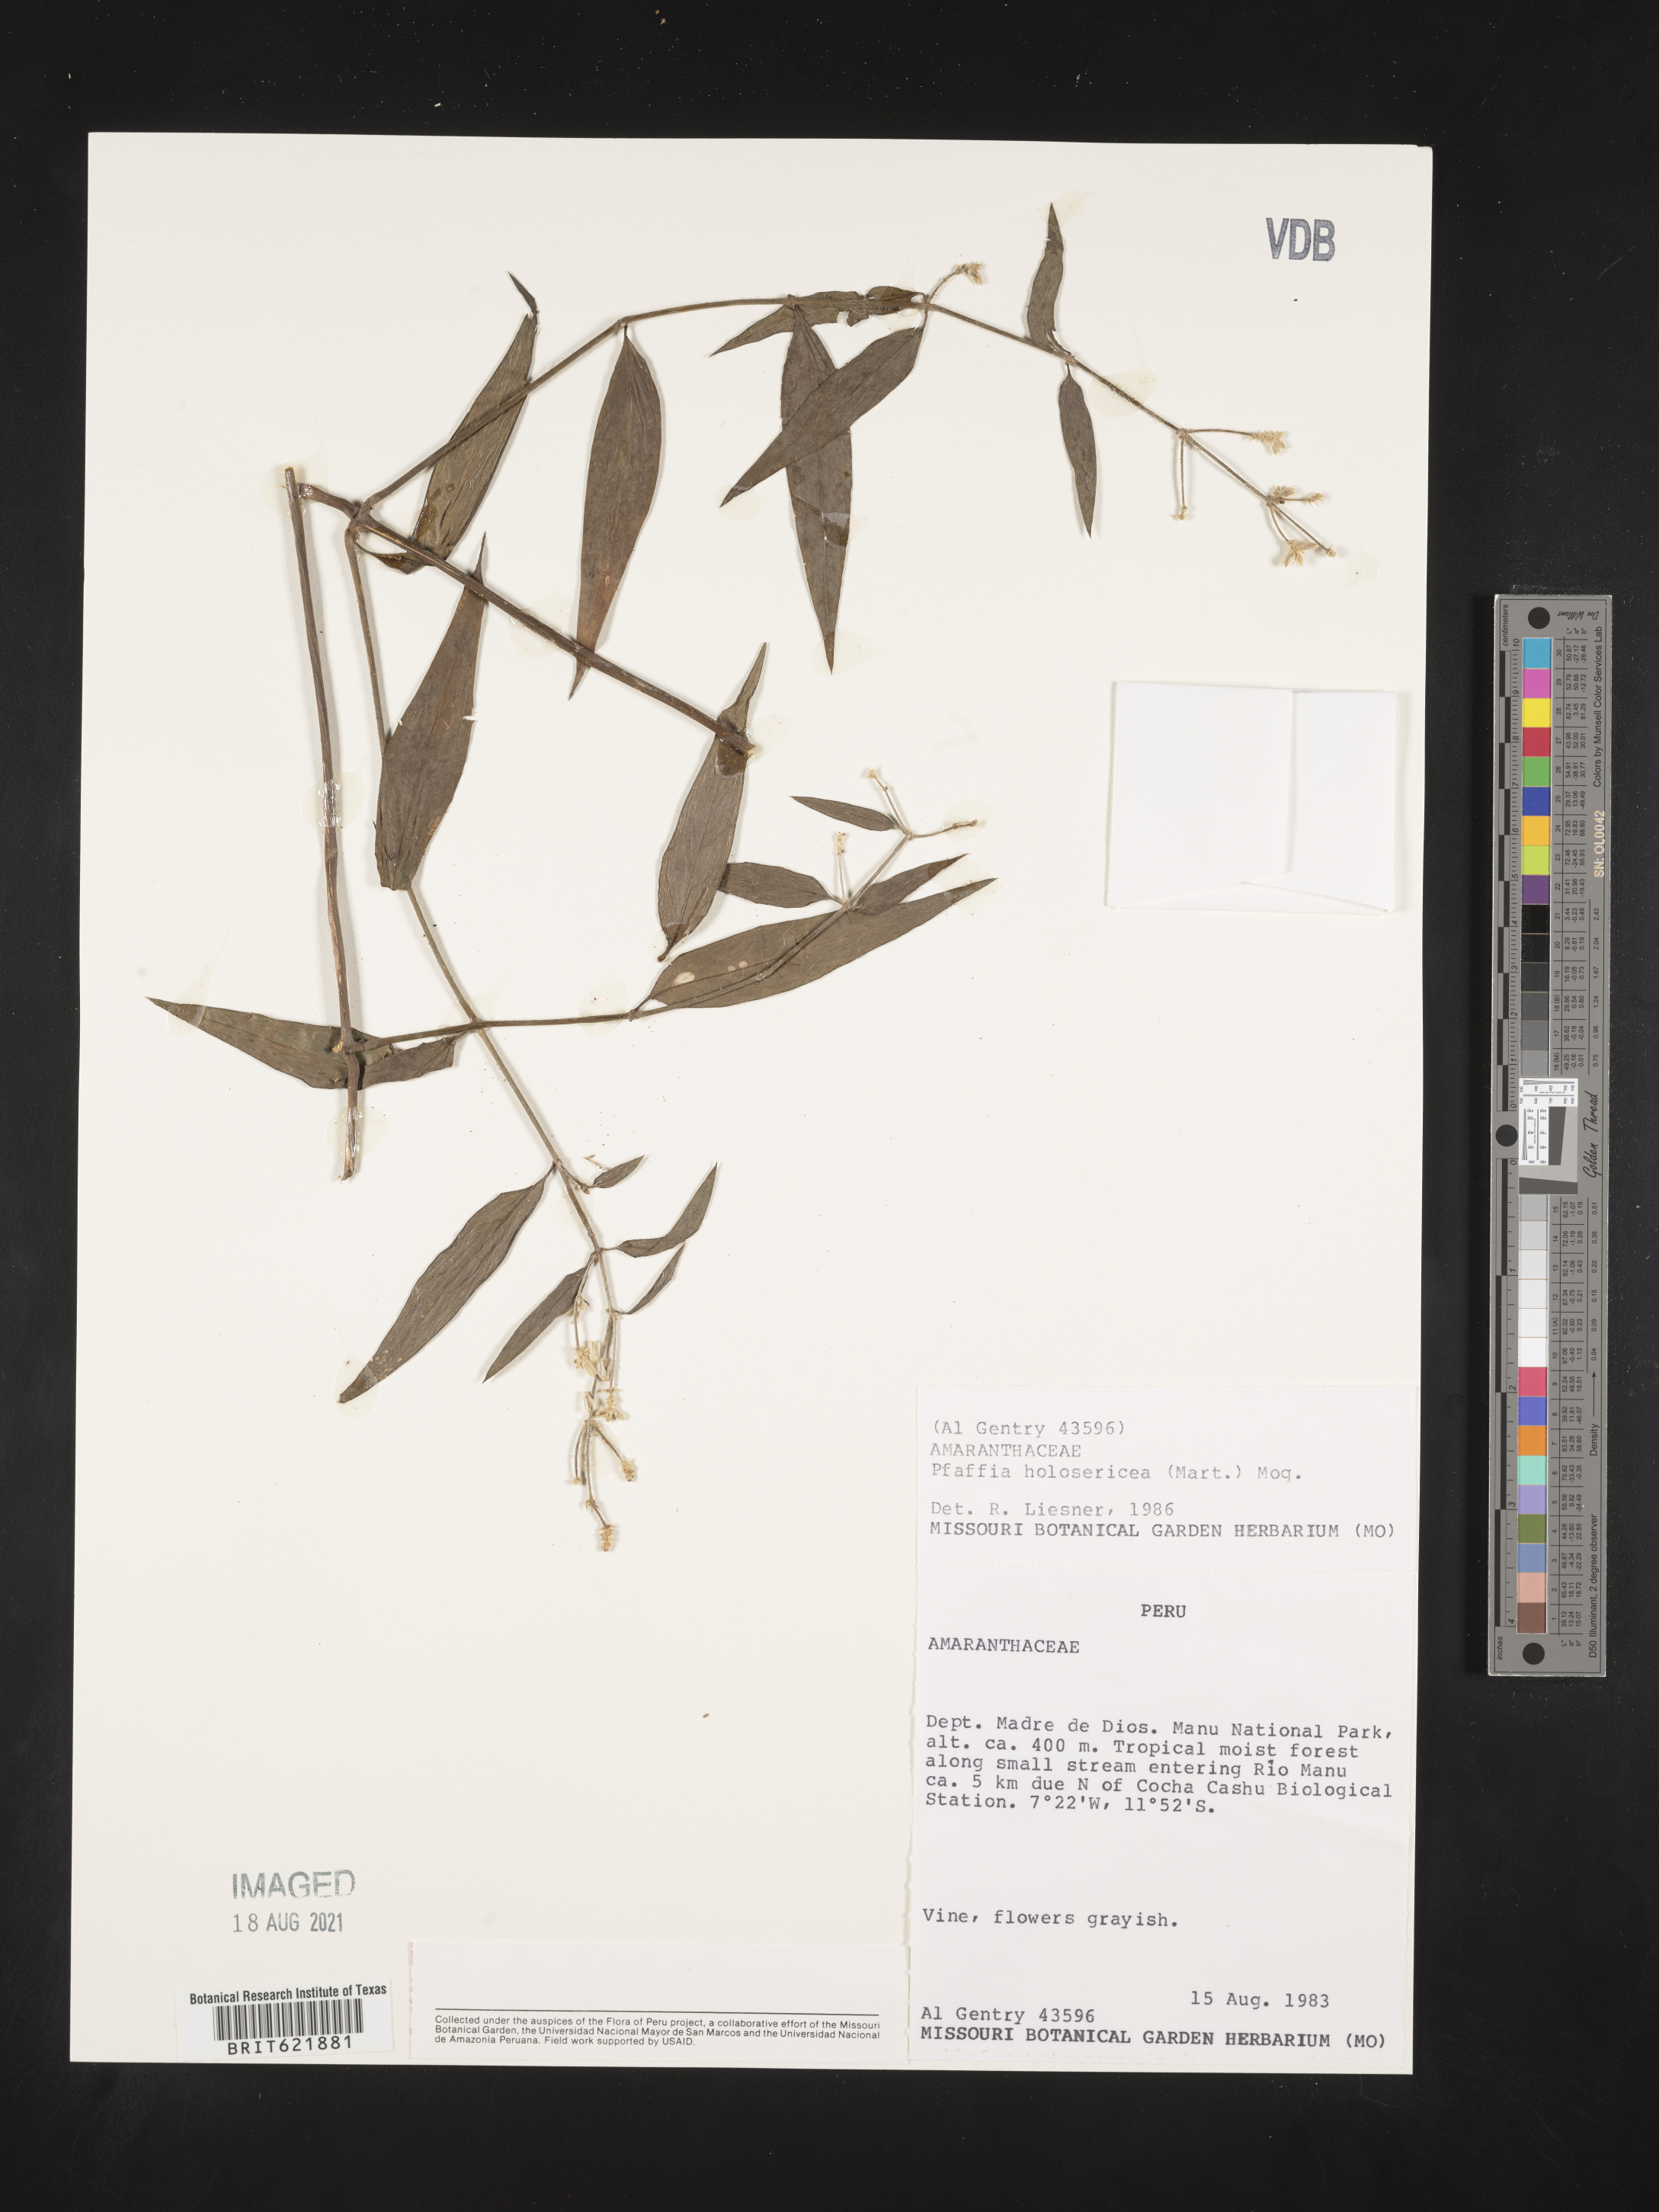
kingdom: Plantae
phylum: Tracheophyta
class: Magnoliopsida
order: Caryophyllales
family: Amaranthaceae
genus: Gomphrena
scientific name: Gomphrena vaga
